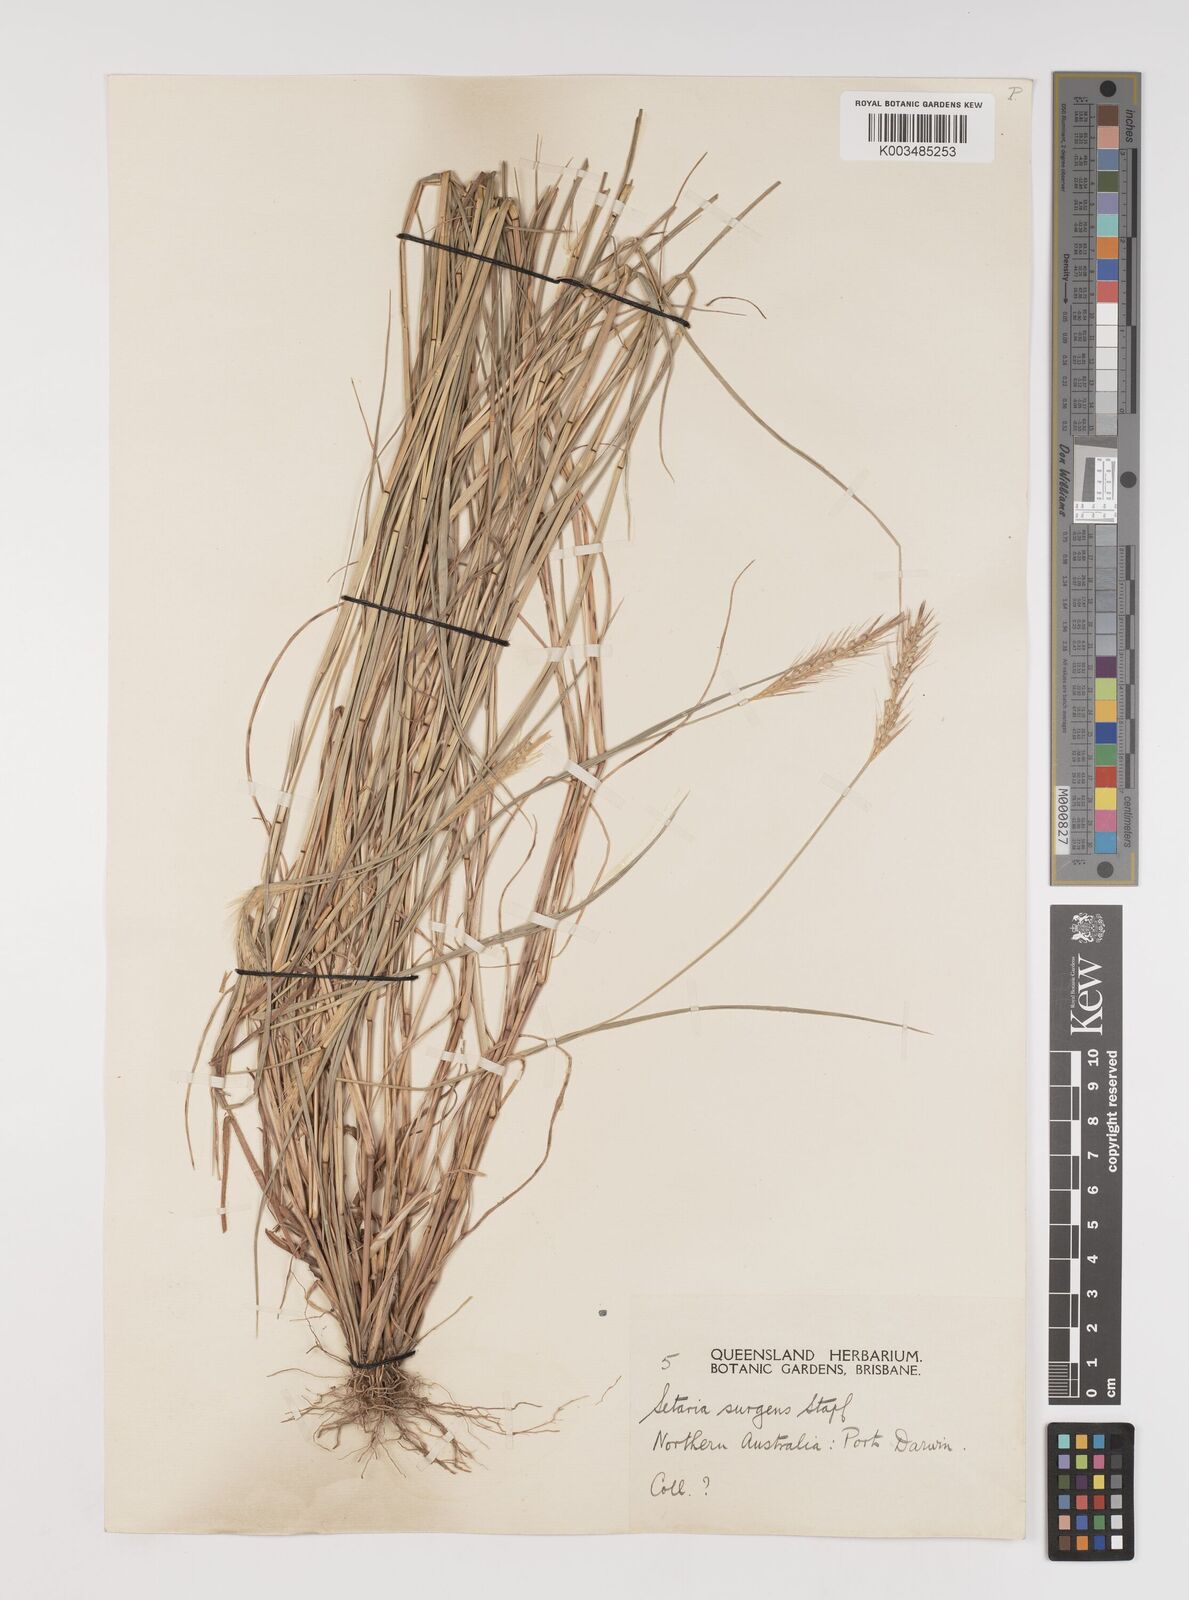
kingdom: Plantae
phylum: Tracheophyta
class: Liliopsida
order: Poales
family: Poaceae
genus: Setaria
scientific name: Setaria apiculata
